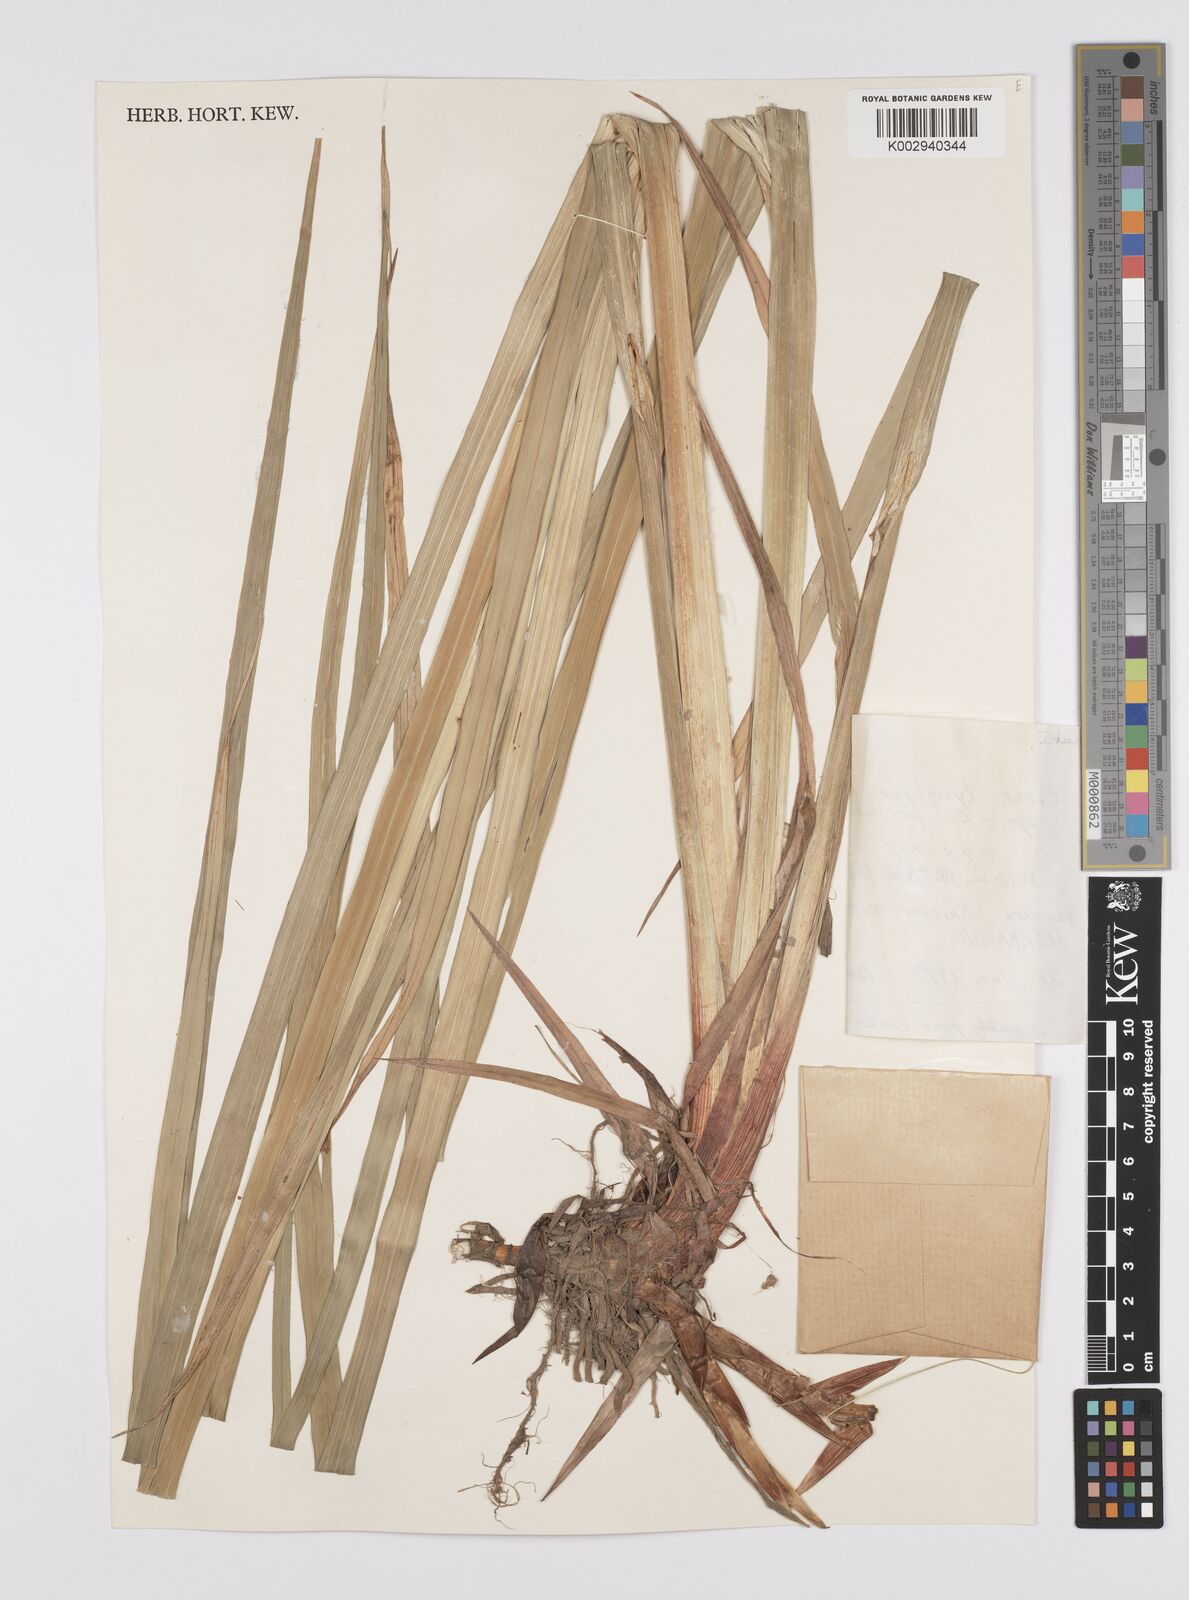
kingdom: Plantae
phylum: Tracheophyta
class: Liliopsida
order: Poales
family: Cyperaceae
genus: Carex
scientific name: Carex lyngbyei
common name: Lyngbye's sedge
